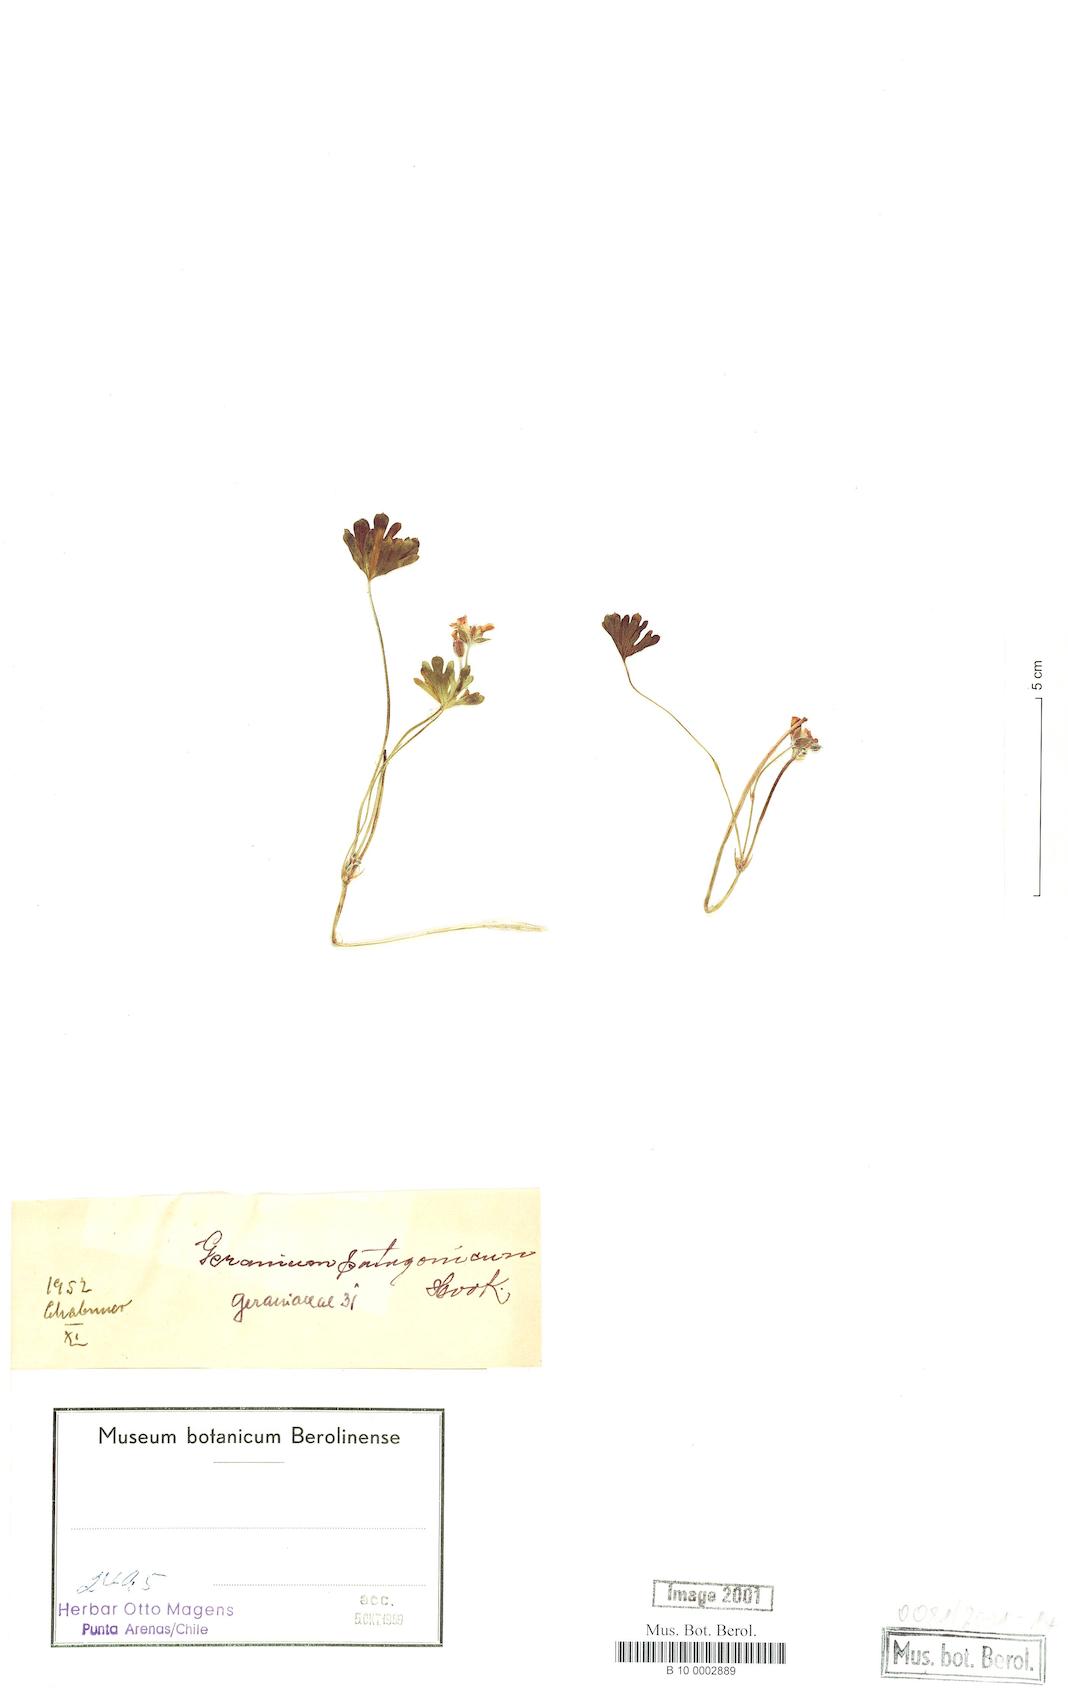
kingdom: Plantae
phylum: Tracheophyta
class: Magnoliopsida
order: Geraniales
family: Geraniaceae
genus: Geranium
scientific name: Geranium berteroanum
